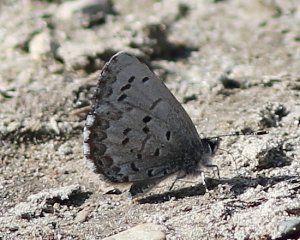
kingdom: Animalia
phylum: Arthropoda
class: Insecta
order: Lepidoptera
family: Lycaenidae
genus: Celastrina
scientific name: Celastrina lucia
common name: Northern Spring Azure
